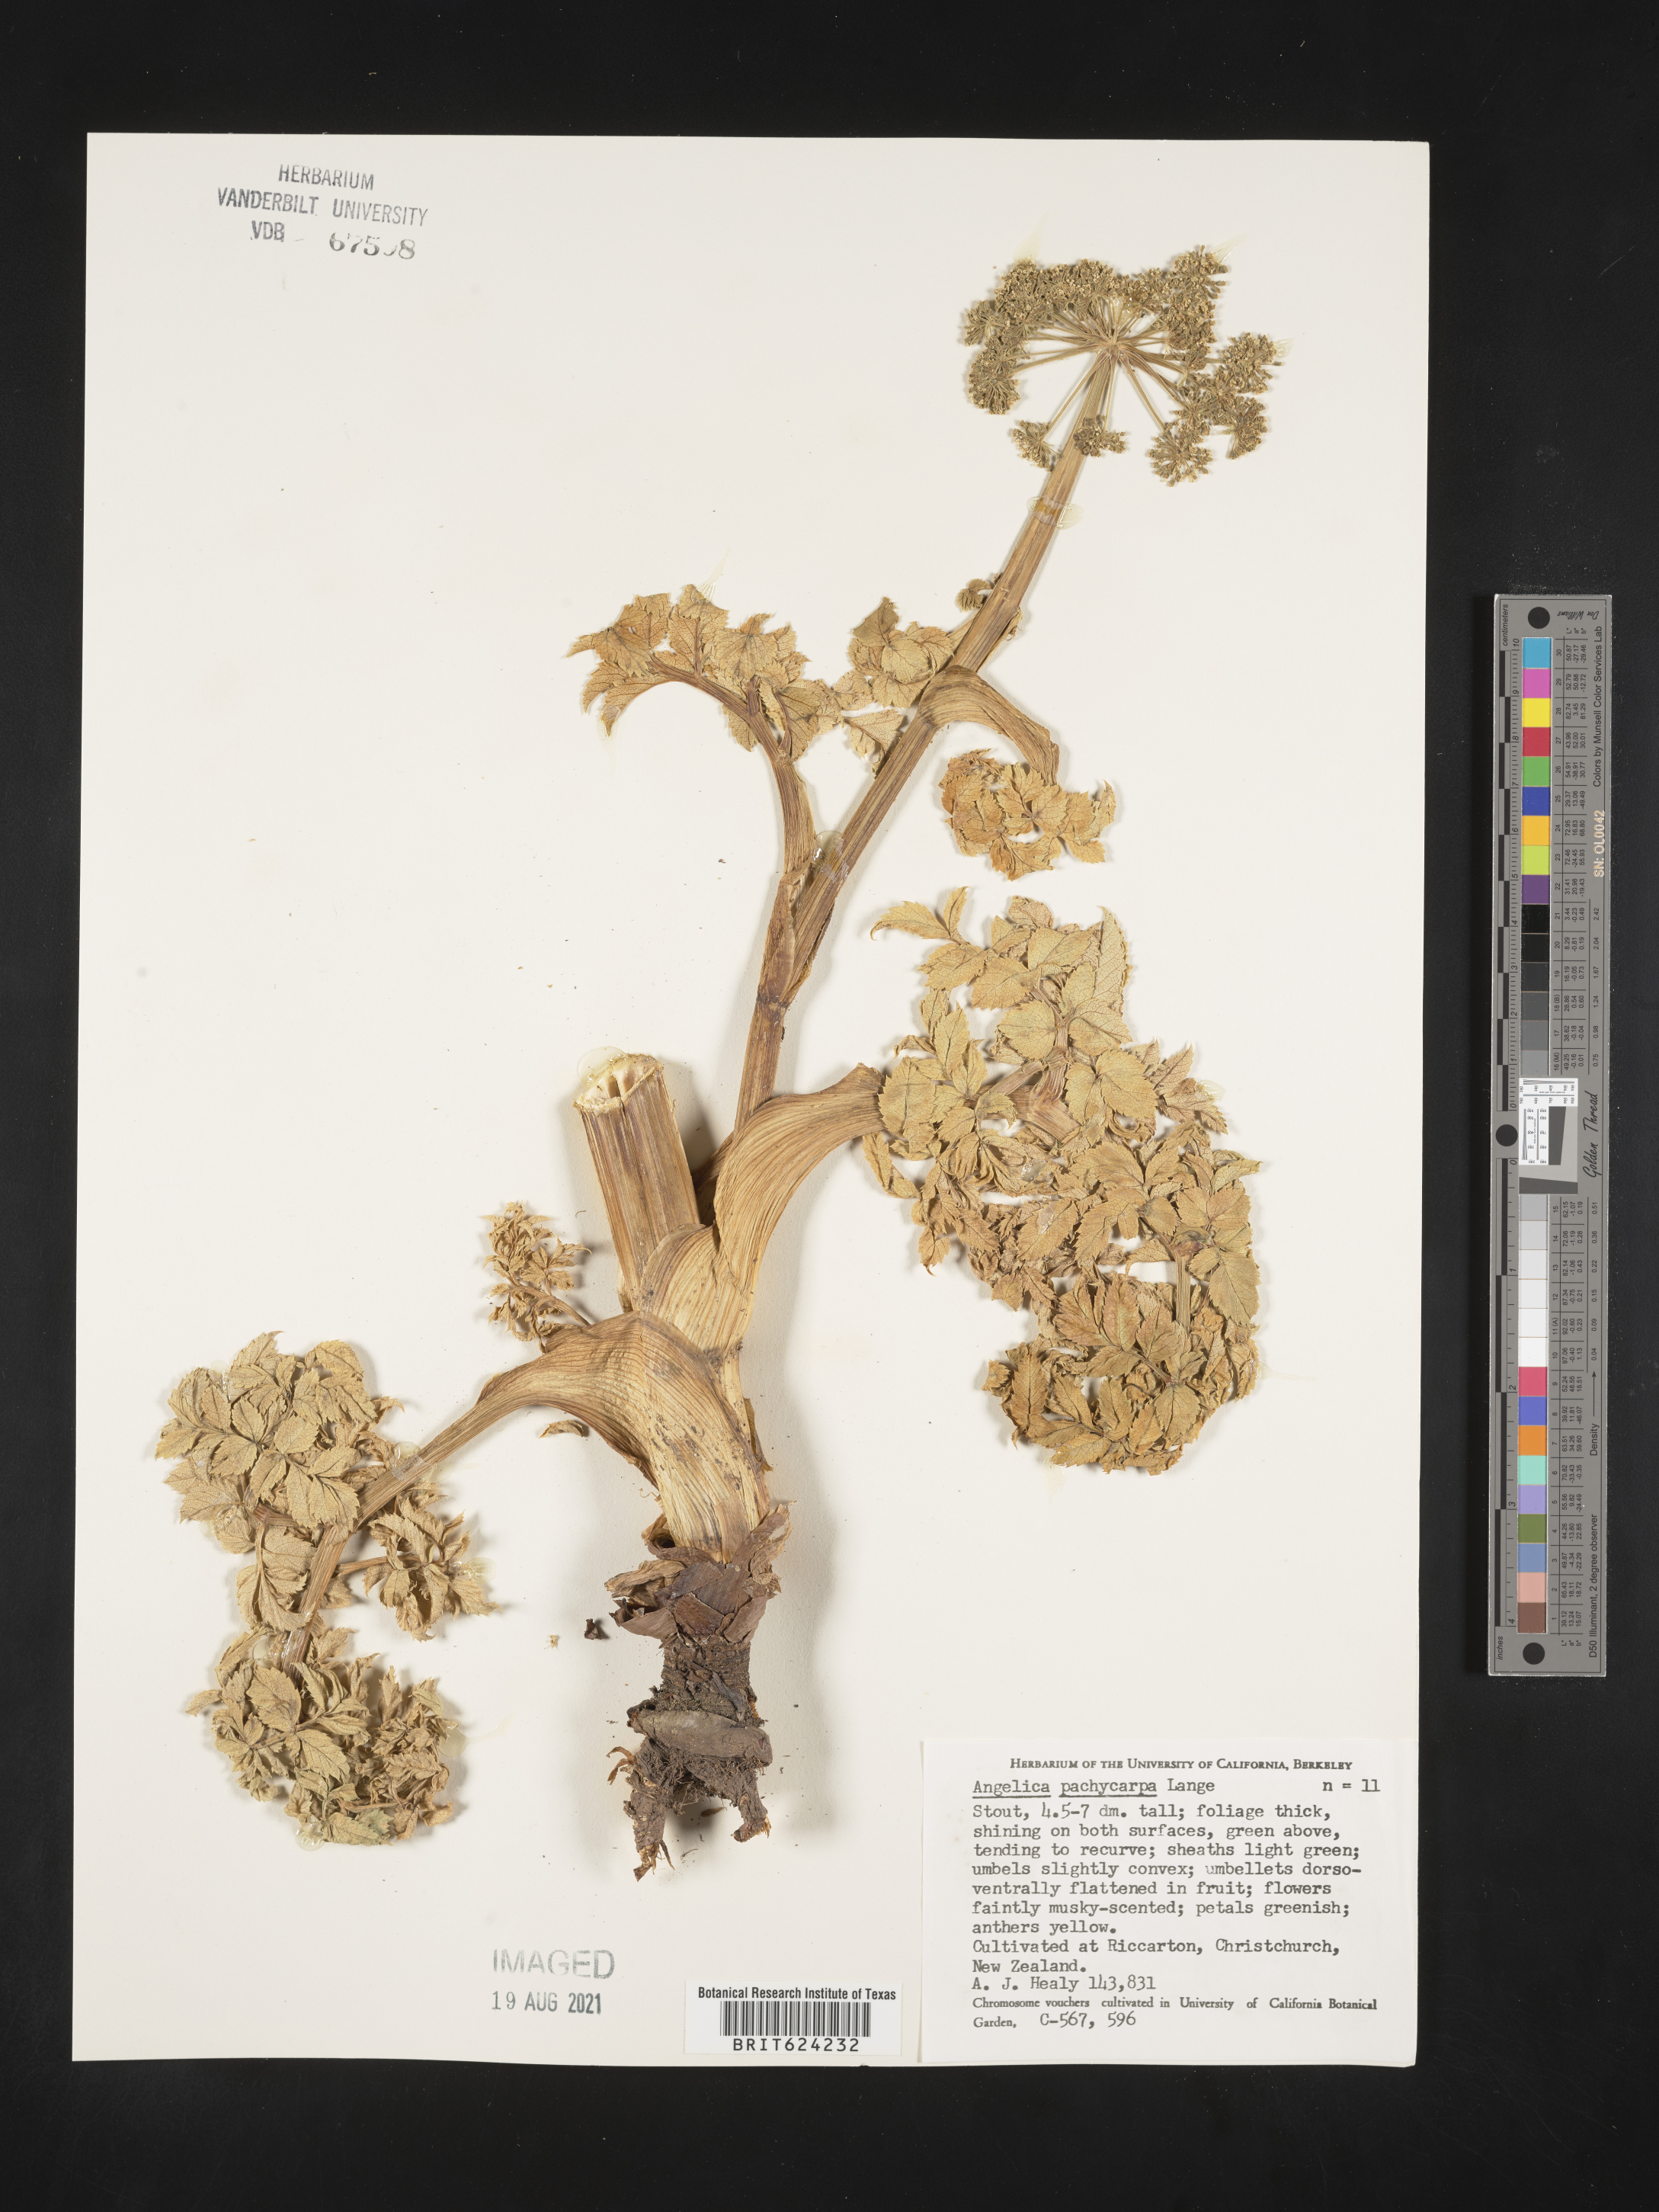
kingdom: Plantae
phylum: Tracheophyta
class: Magnoliopsida
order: Apiales
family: Apiaceae
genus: Angelica
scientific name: Angelica pachycarpa
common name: Portuguese angelica
